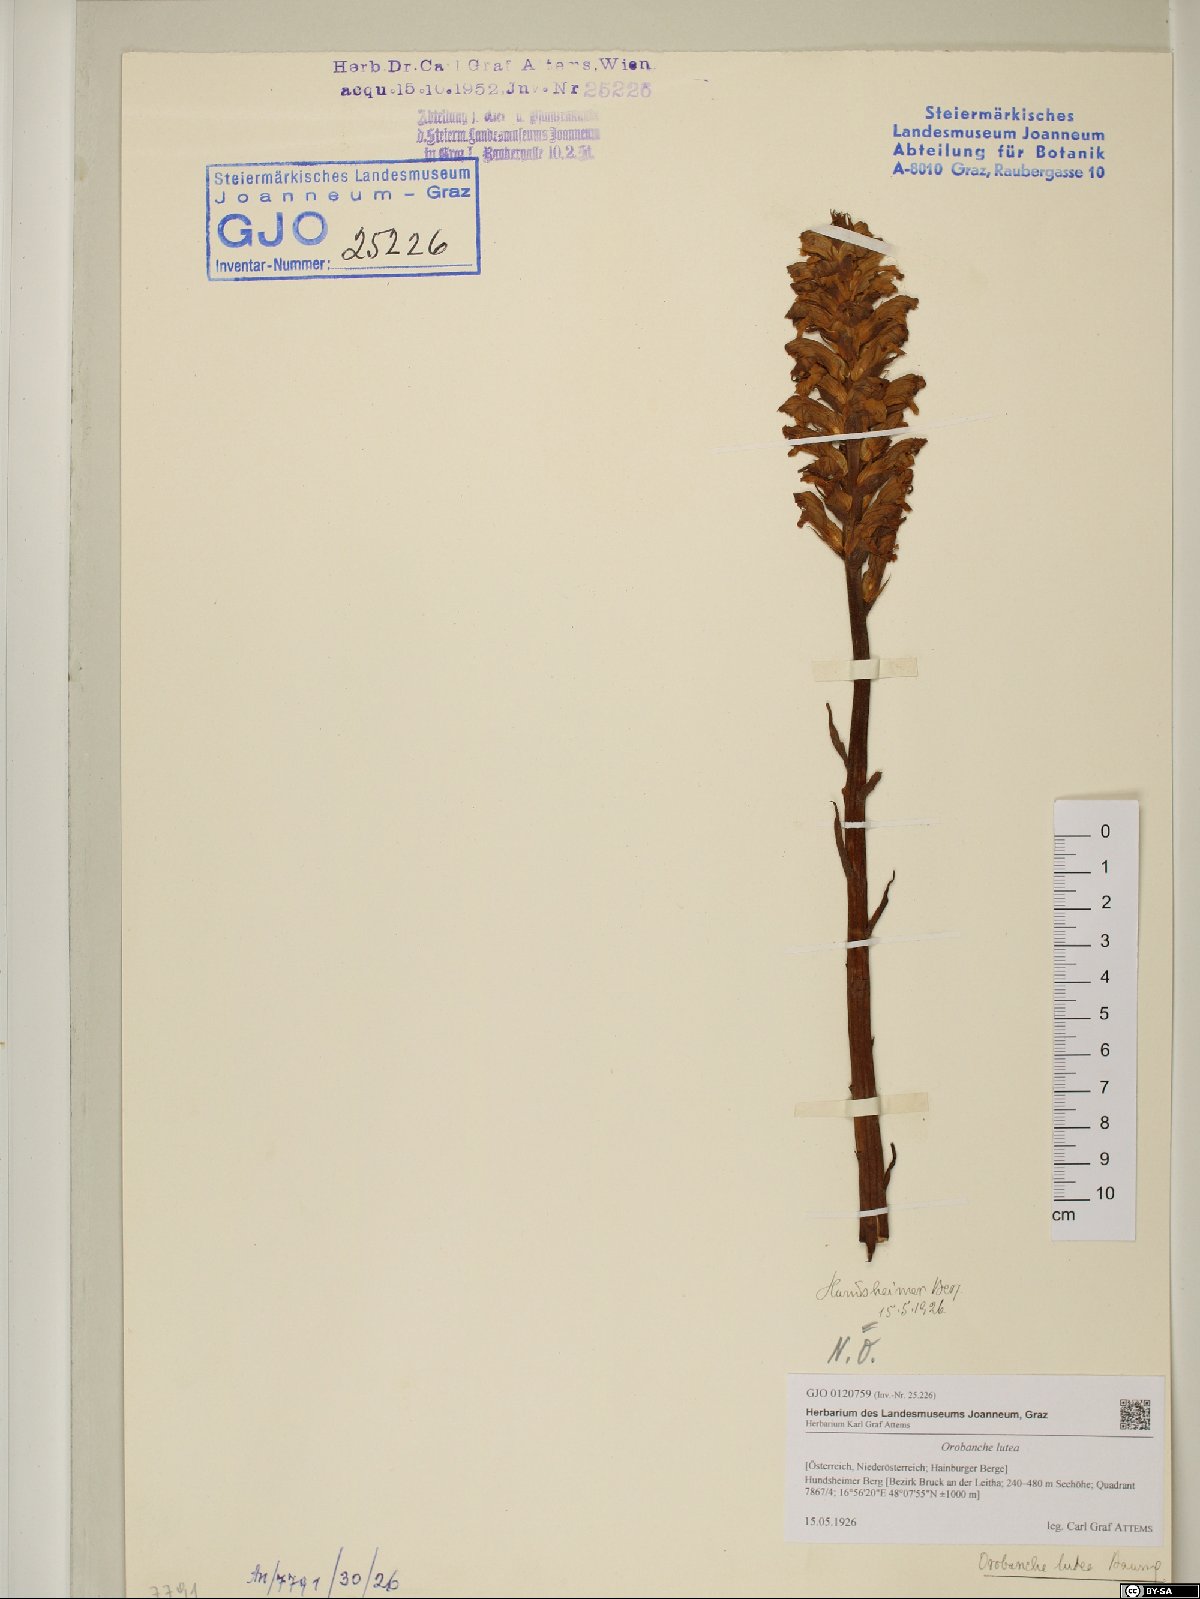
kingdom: Plantae
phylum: Tracheophyta
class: Magnoliopsida
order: Lamiales
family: Orobanchaceae
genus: Orobanche
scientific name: Orobanche lutea
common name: Yellow broomrape
